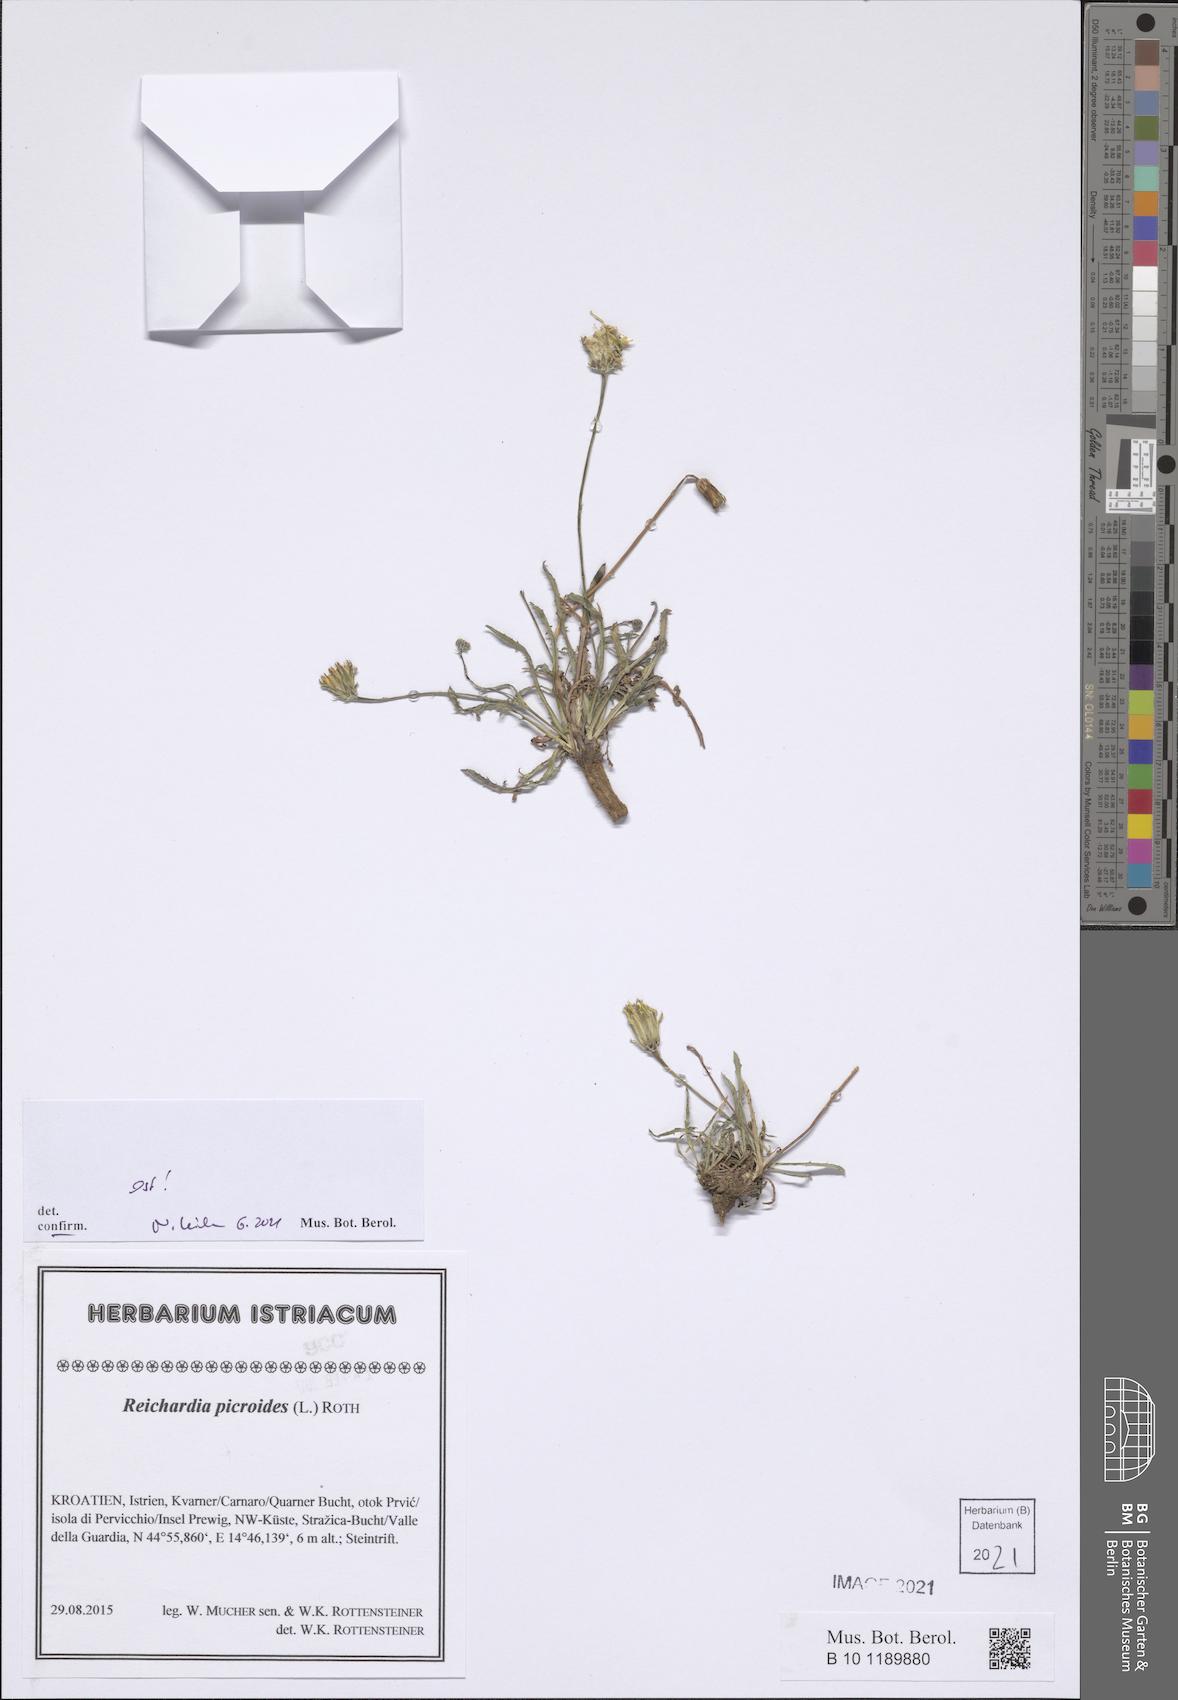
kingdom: Plantae
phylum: Tracheophyta
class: Magnoliopsida
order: Asterales
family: Asteraceae
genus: Reichardia
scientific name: Reichardia picroides
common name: Common brighteyes
